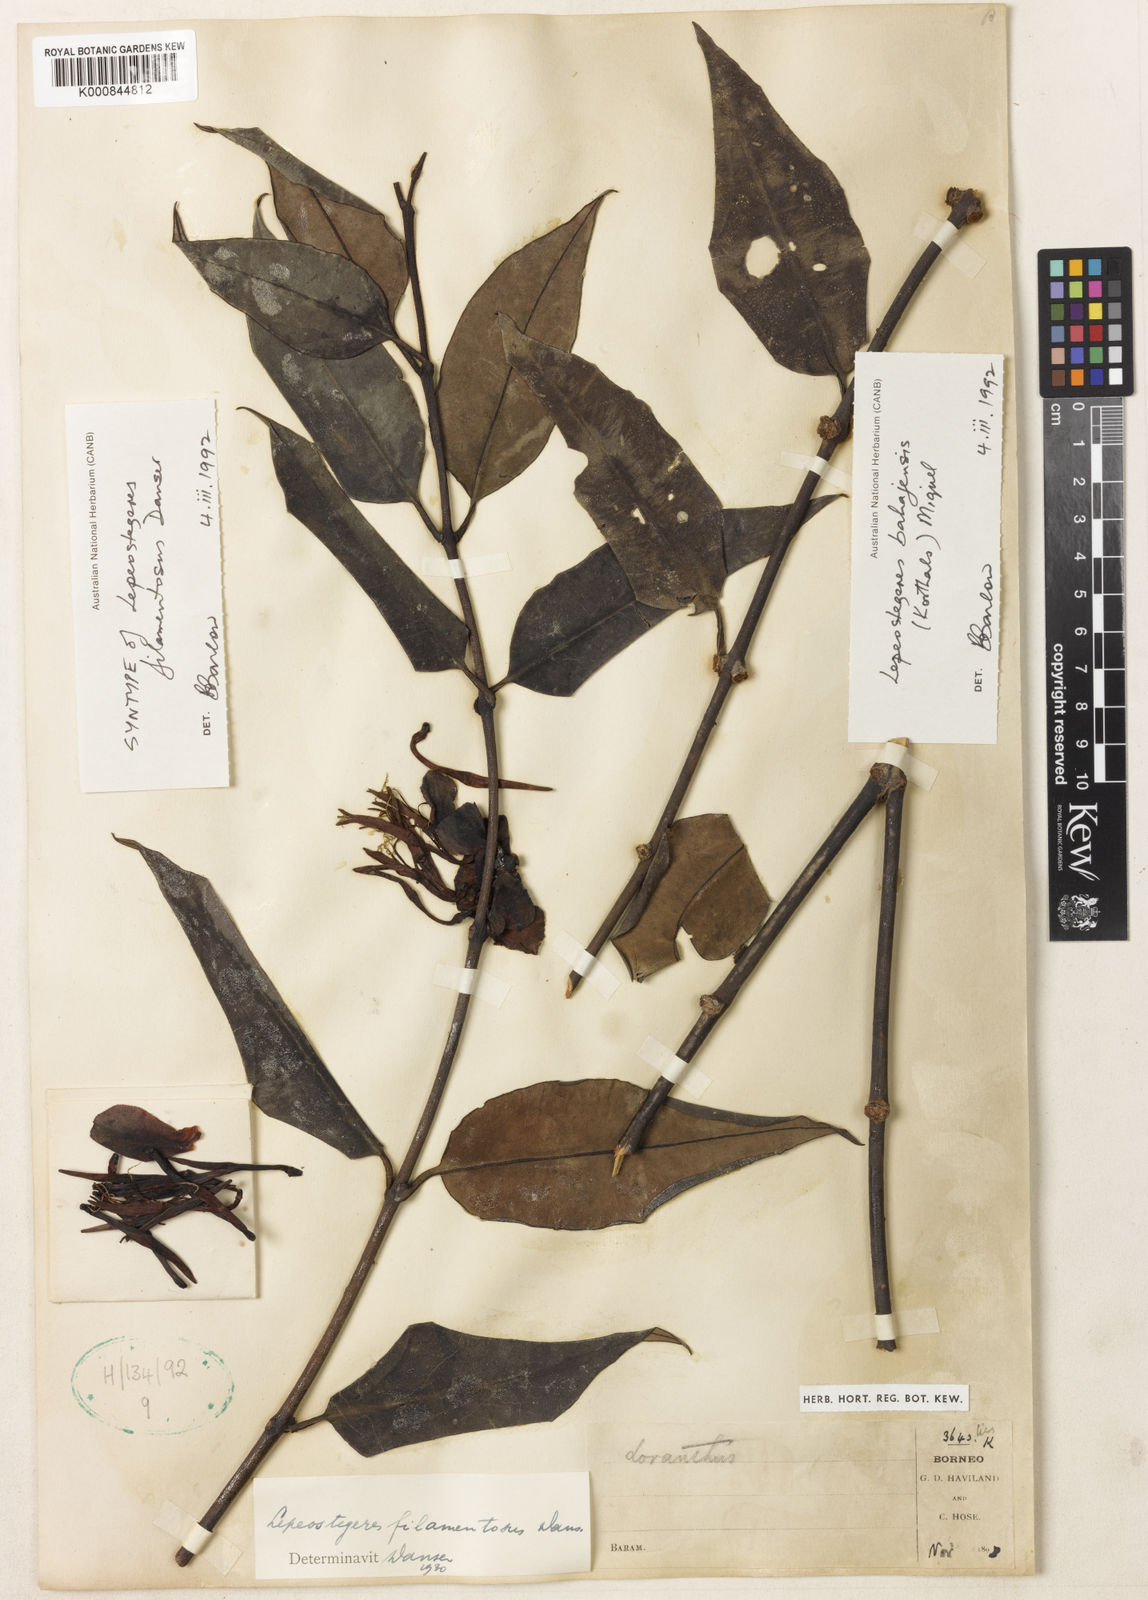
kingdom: Plantae
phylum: Tracheophyta
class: Magnoliopsida
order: Santalales
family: Loranthaceae
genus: Lepeostegeres
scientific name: Lepeostegeres bahajensis
